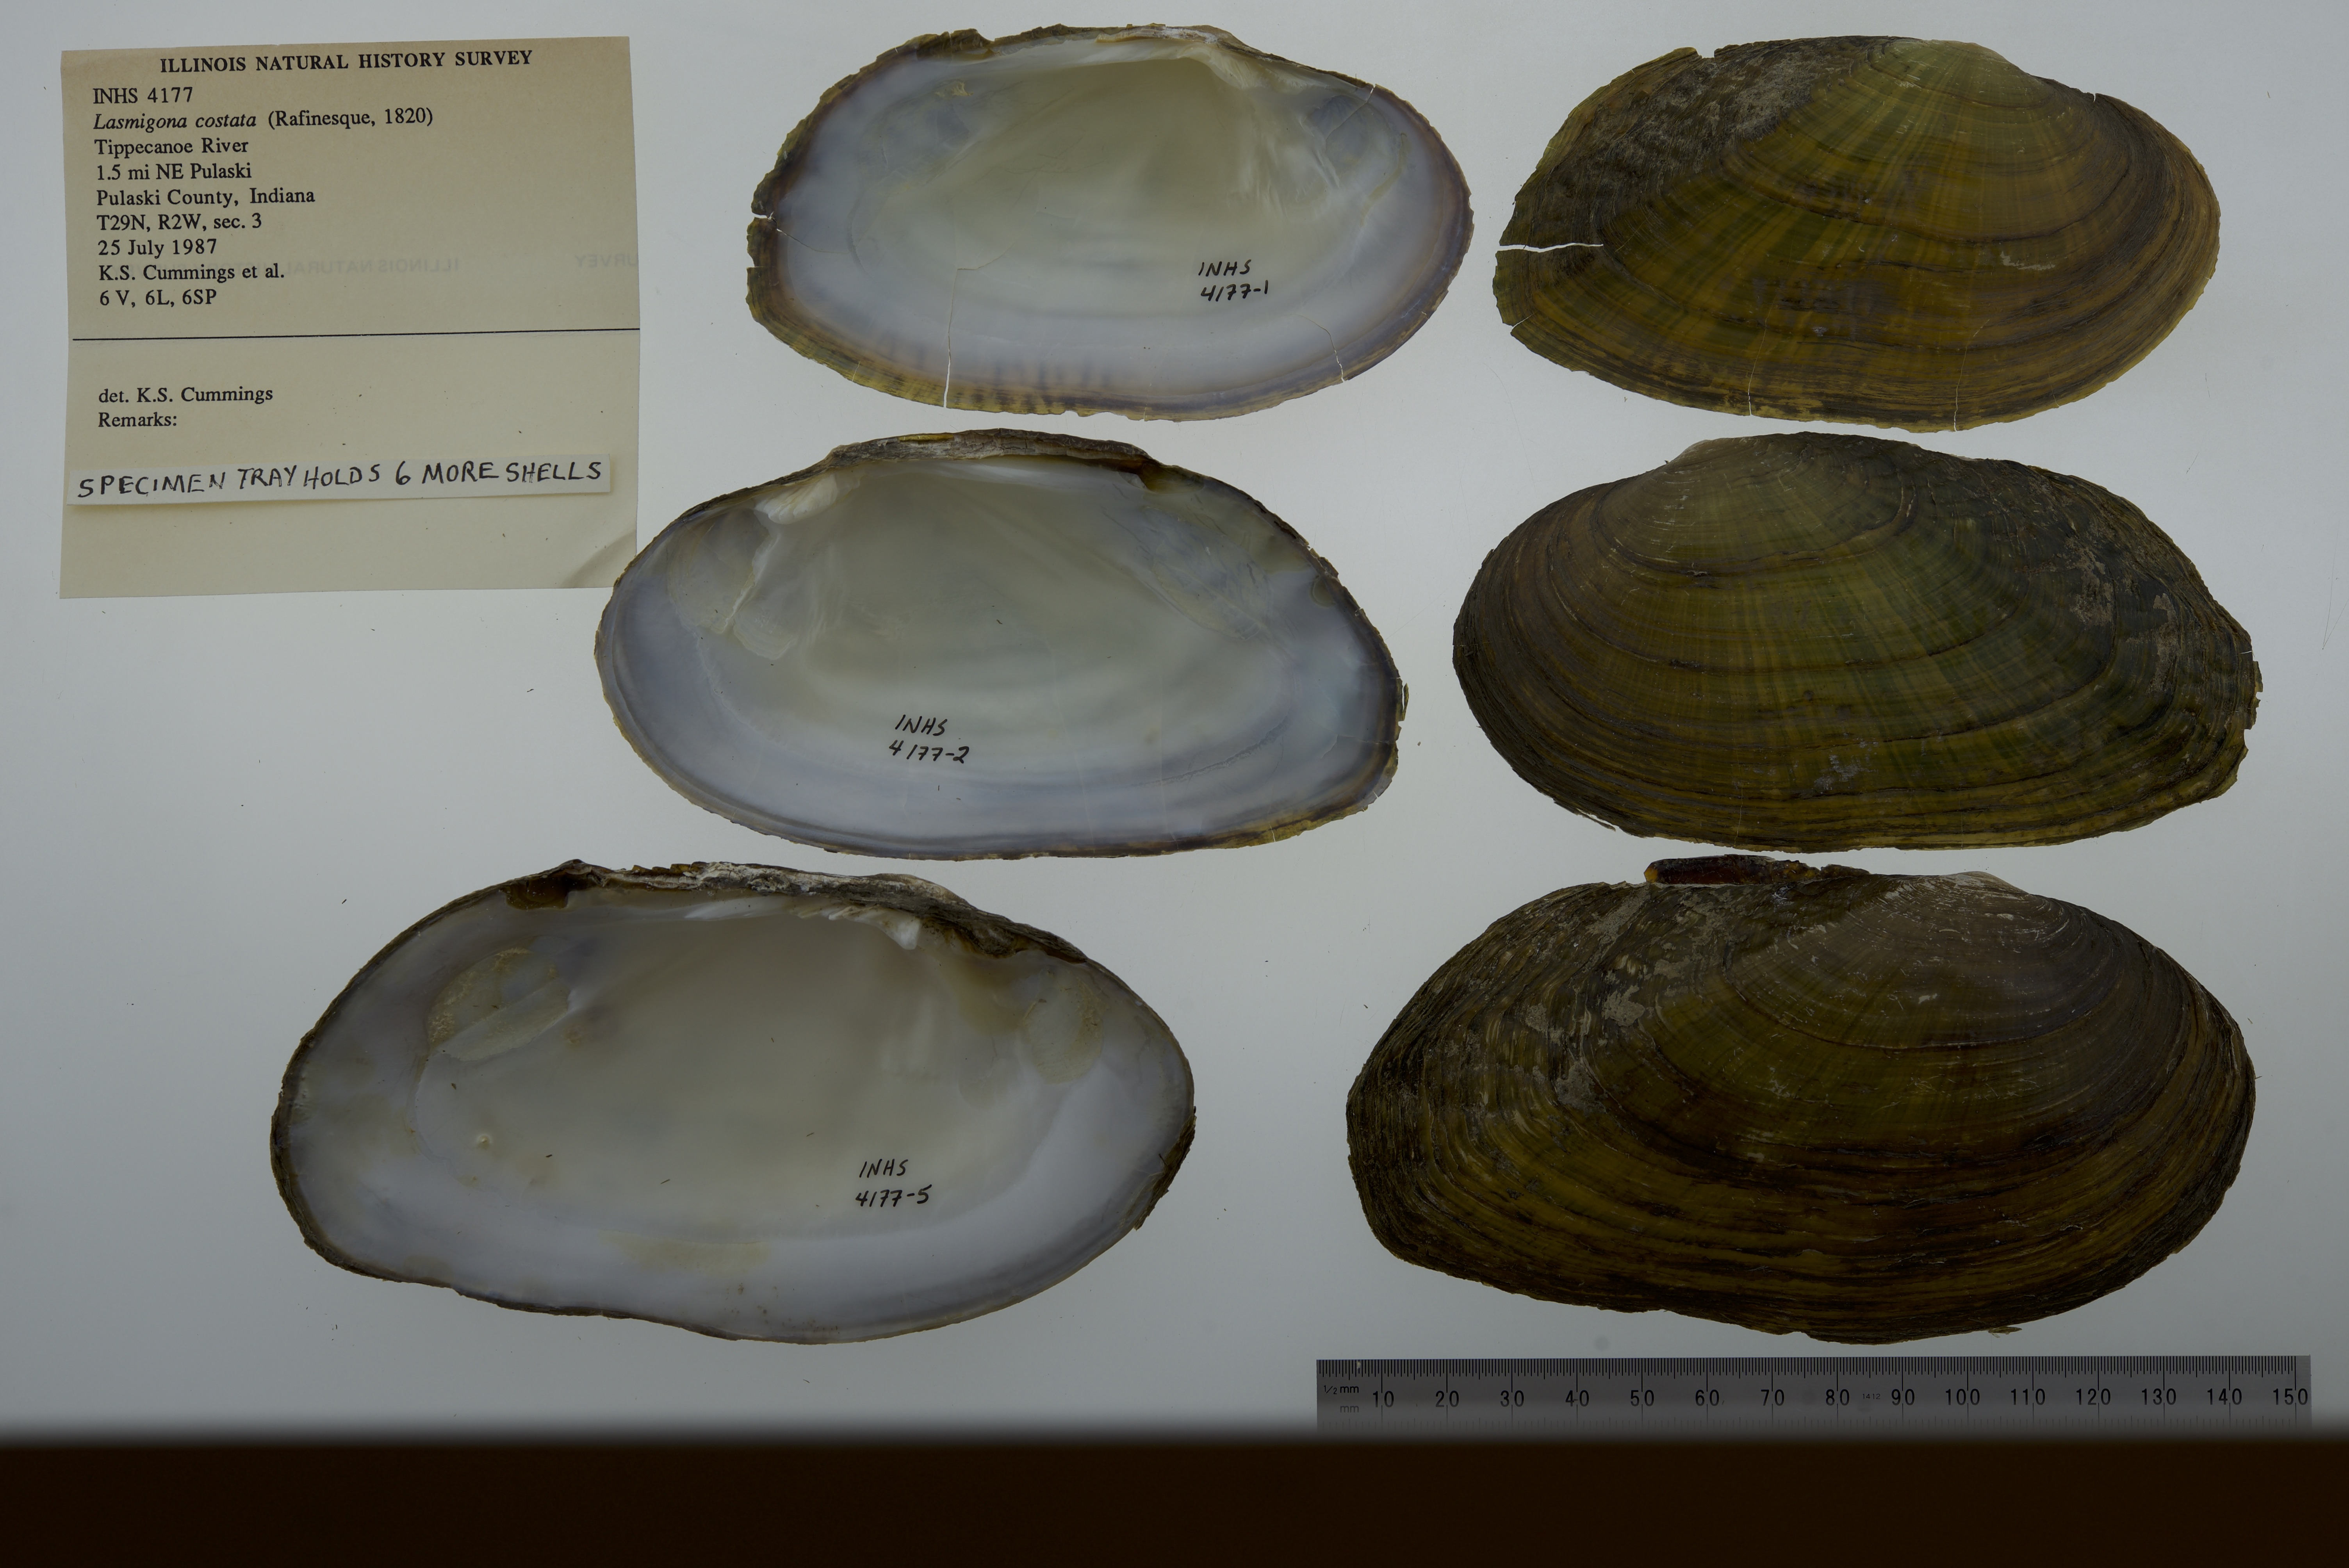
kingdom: Animalia
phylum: Mollusca
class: Bivalvia
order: Unionida
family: Unionidae
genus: Lasmigona
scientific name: Lasmigona costata
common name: Flutedshell
